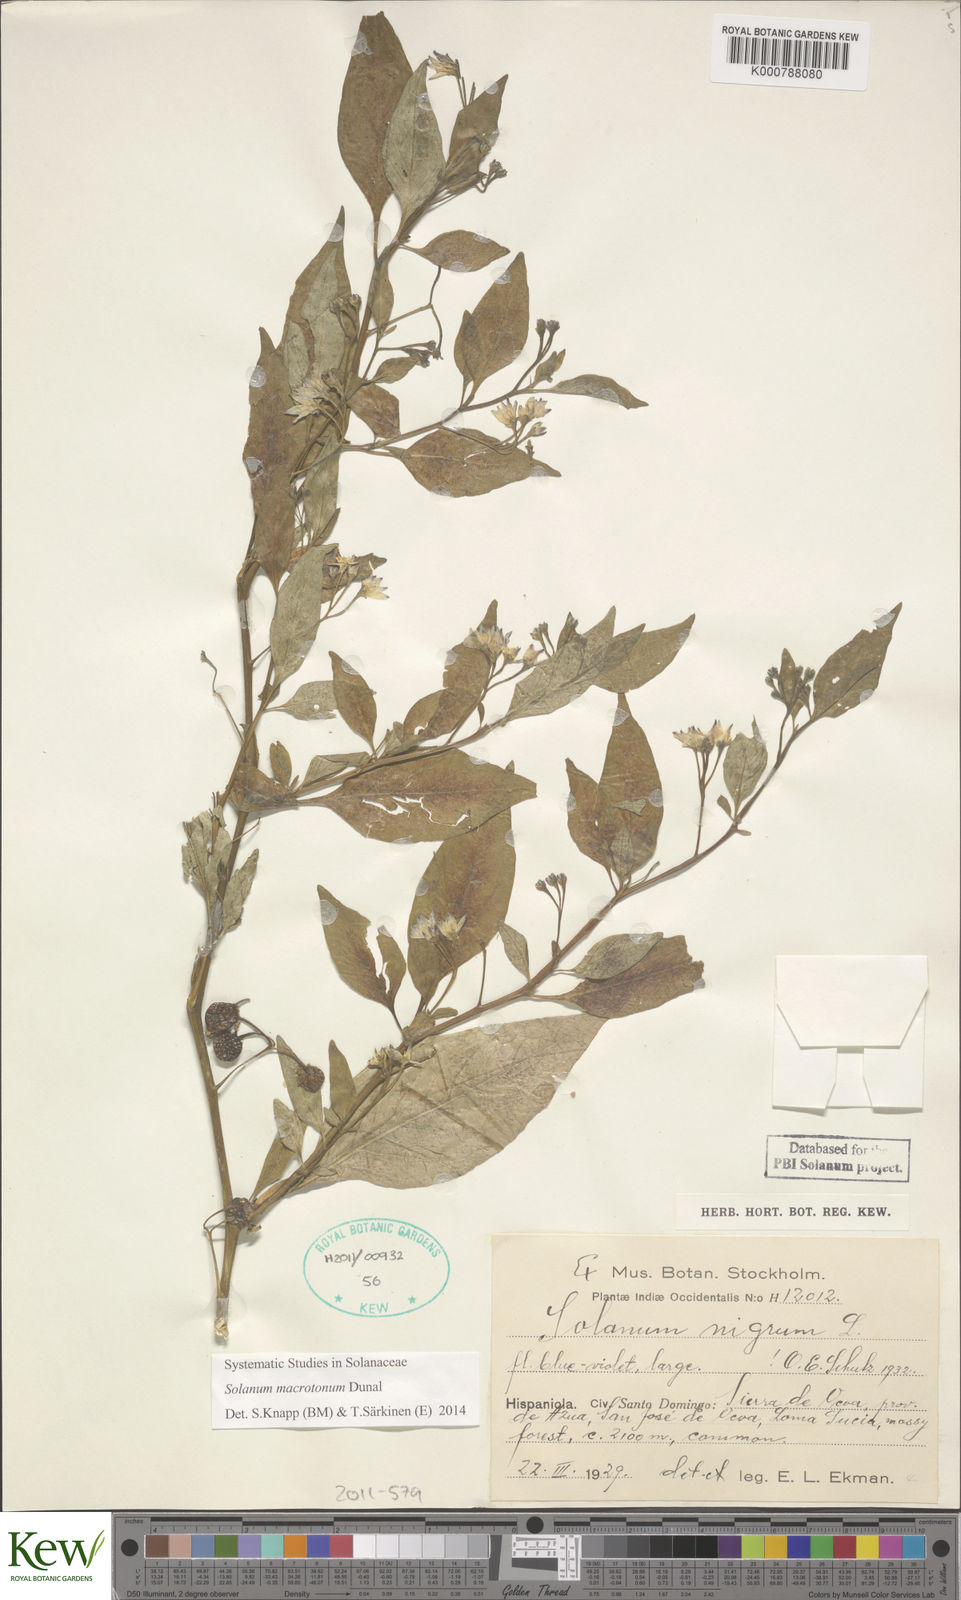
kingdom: Plantae
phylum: Tracheophyta
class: Magnoliopsida
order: Solanales
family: Solanaceae
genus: Solanum
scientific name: Solanum macrotonum
